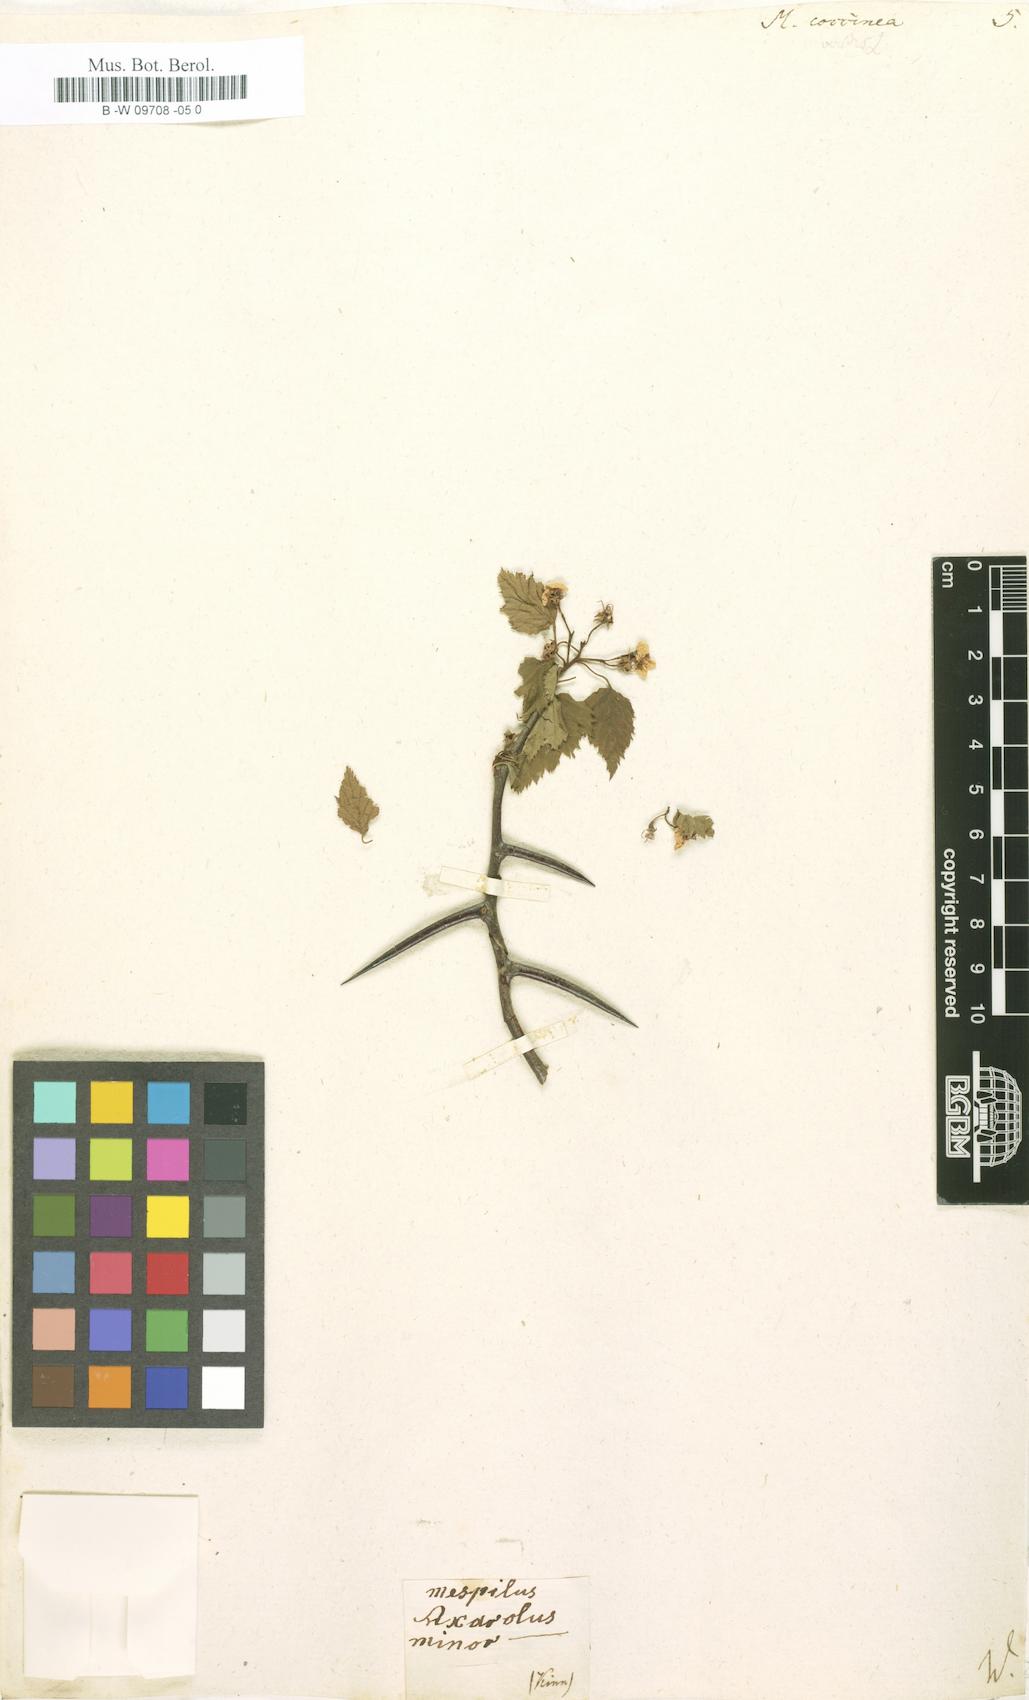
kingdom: Plantae
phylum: Tracheophyta
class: Magnoliopsida
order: Rosales
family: Rosaceae
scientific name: Rosaceae
